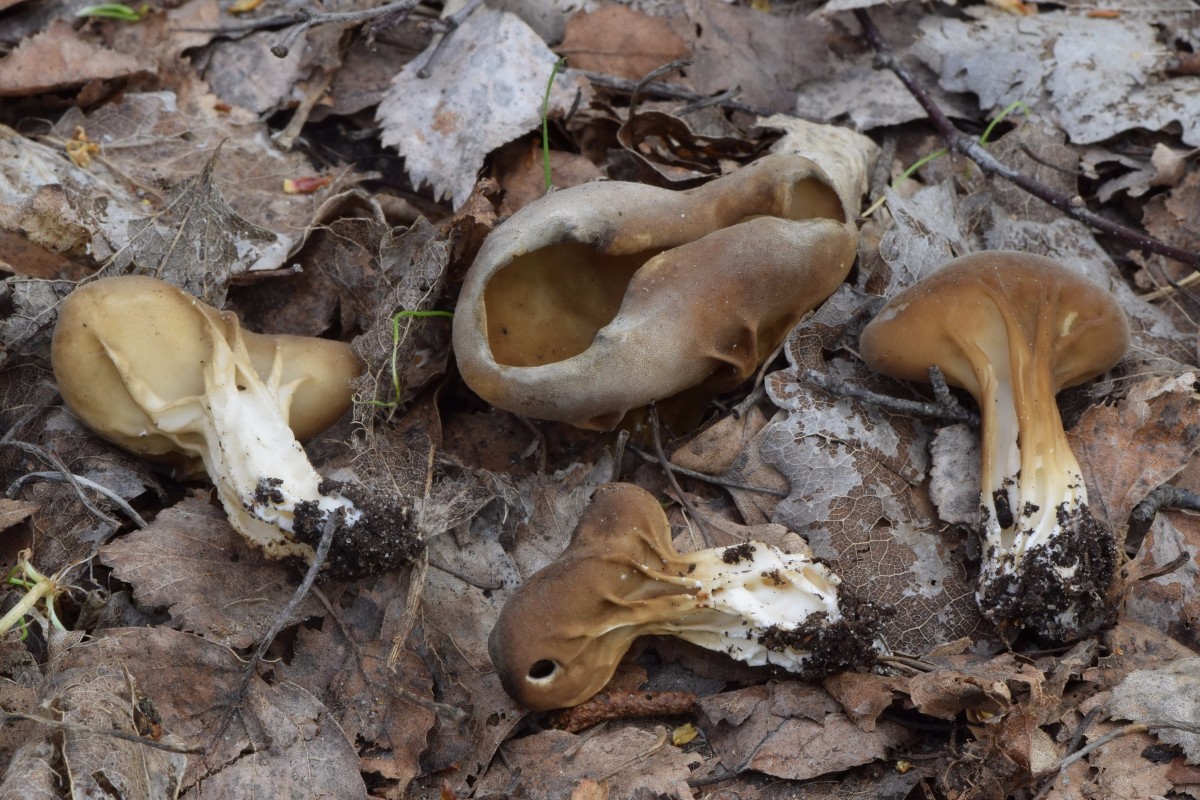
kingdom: Fungi
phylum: Ascomycota
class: Pezizomycetes
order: Pezizales
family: Helvellaceae
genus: Helvella
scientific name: Helvella acetabulum
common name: pokal-foldhat
